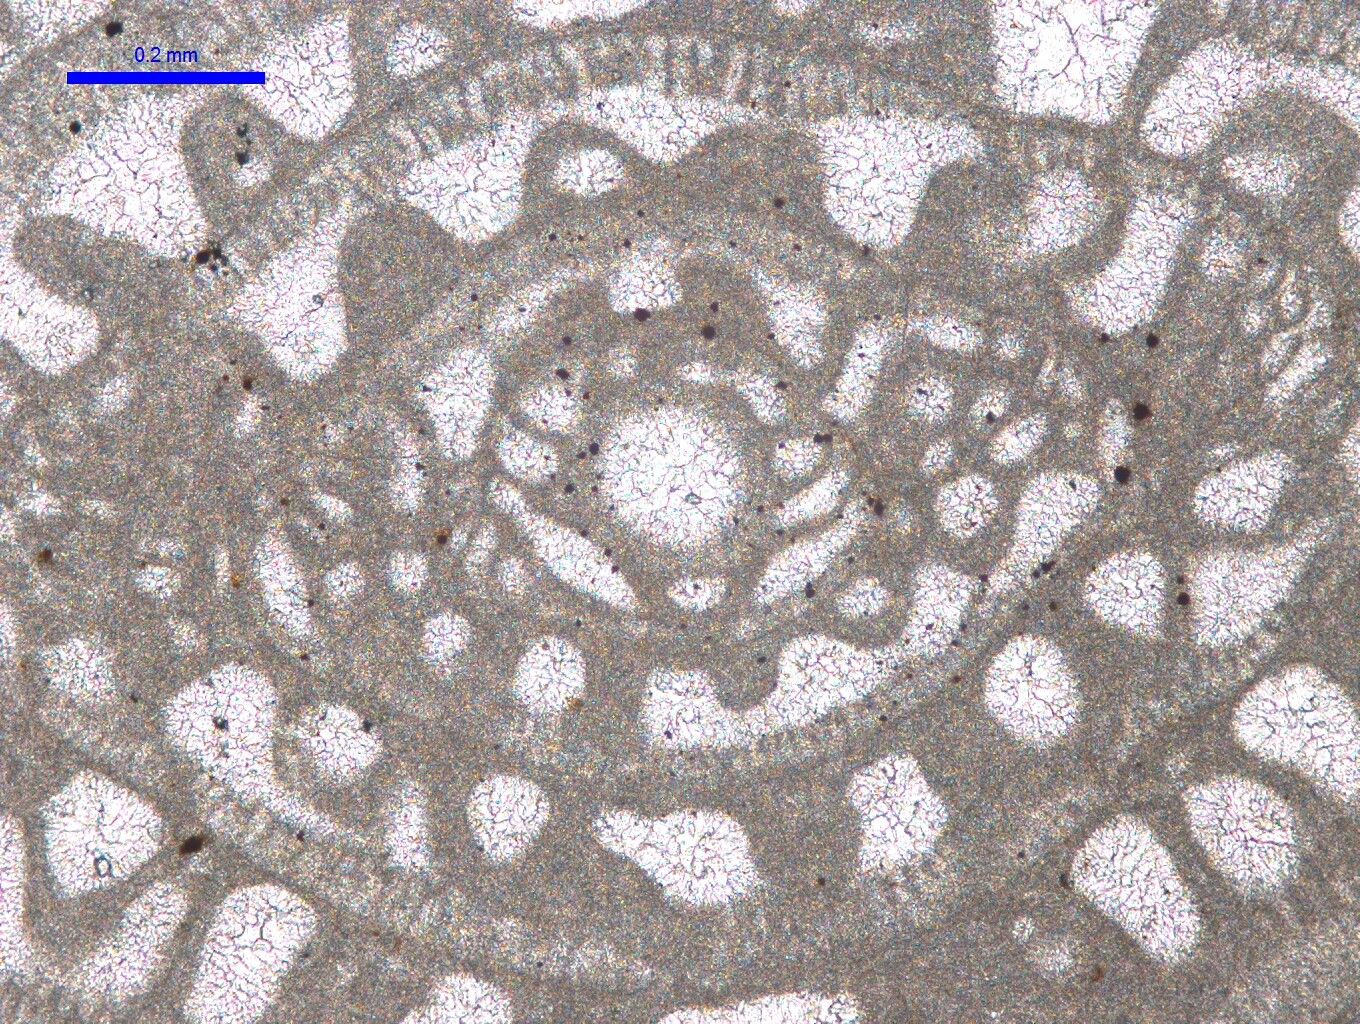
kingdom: Chromista
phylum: Foraminifera
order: Fusulinida
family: Triticitidae
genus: Paratriticites
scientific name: Paratriticites extumidus
